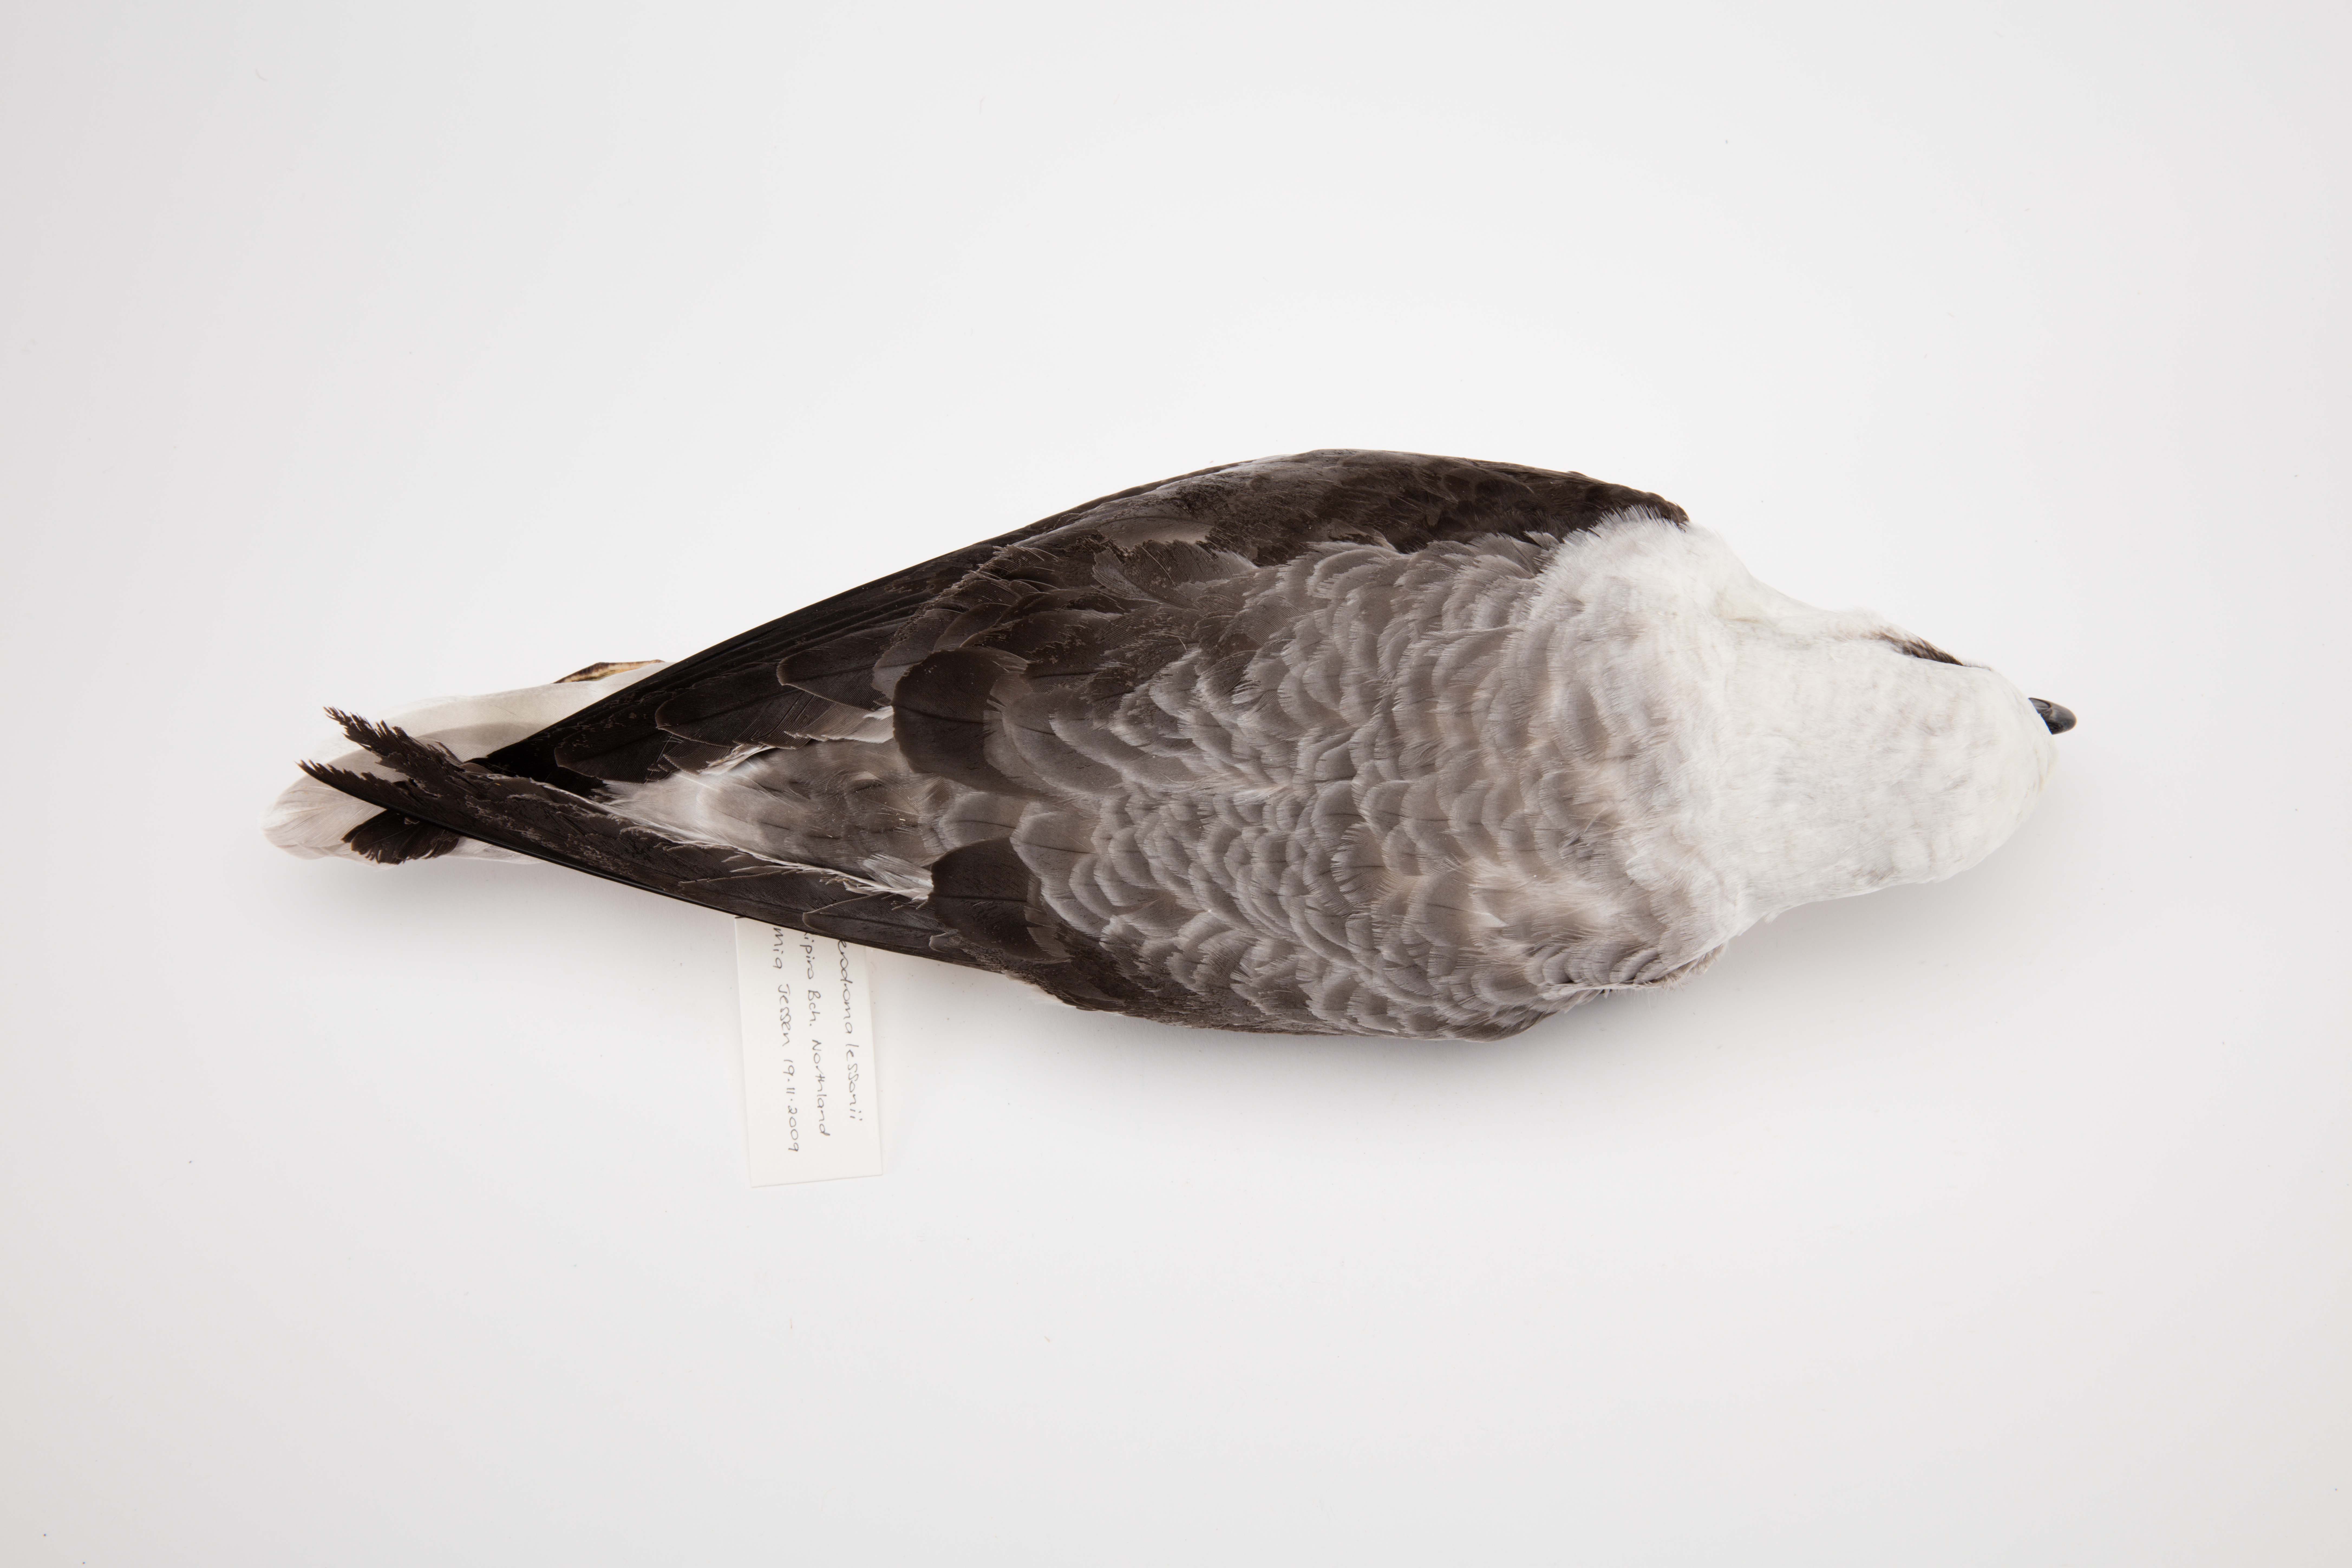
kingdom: Animalia
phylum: Chordata
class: Aves
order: Procellariiformes
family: Procellariidae
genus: Pterodroma
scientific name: Pterodroma lessonii
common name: White-headed petrel
